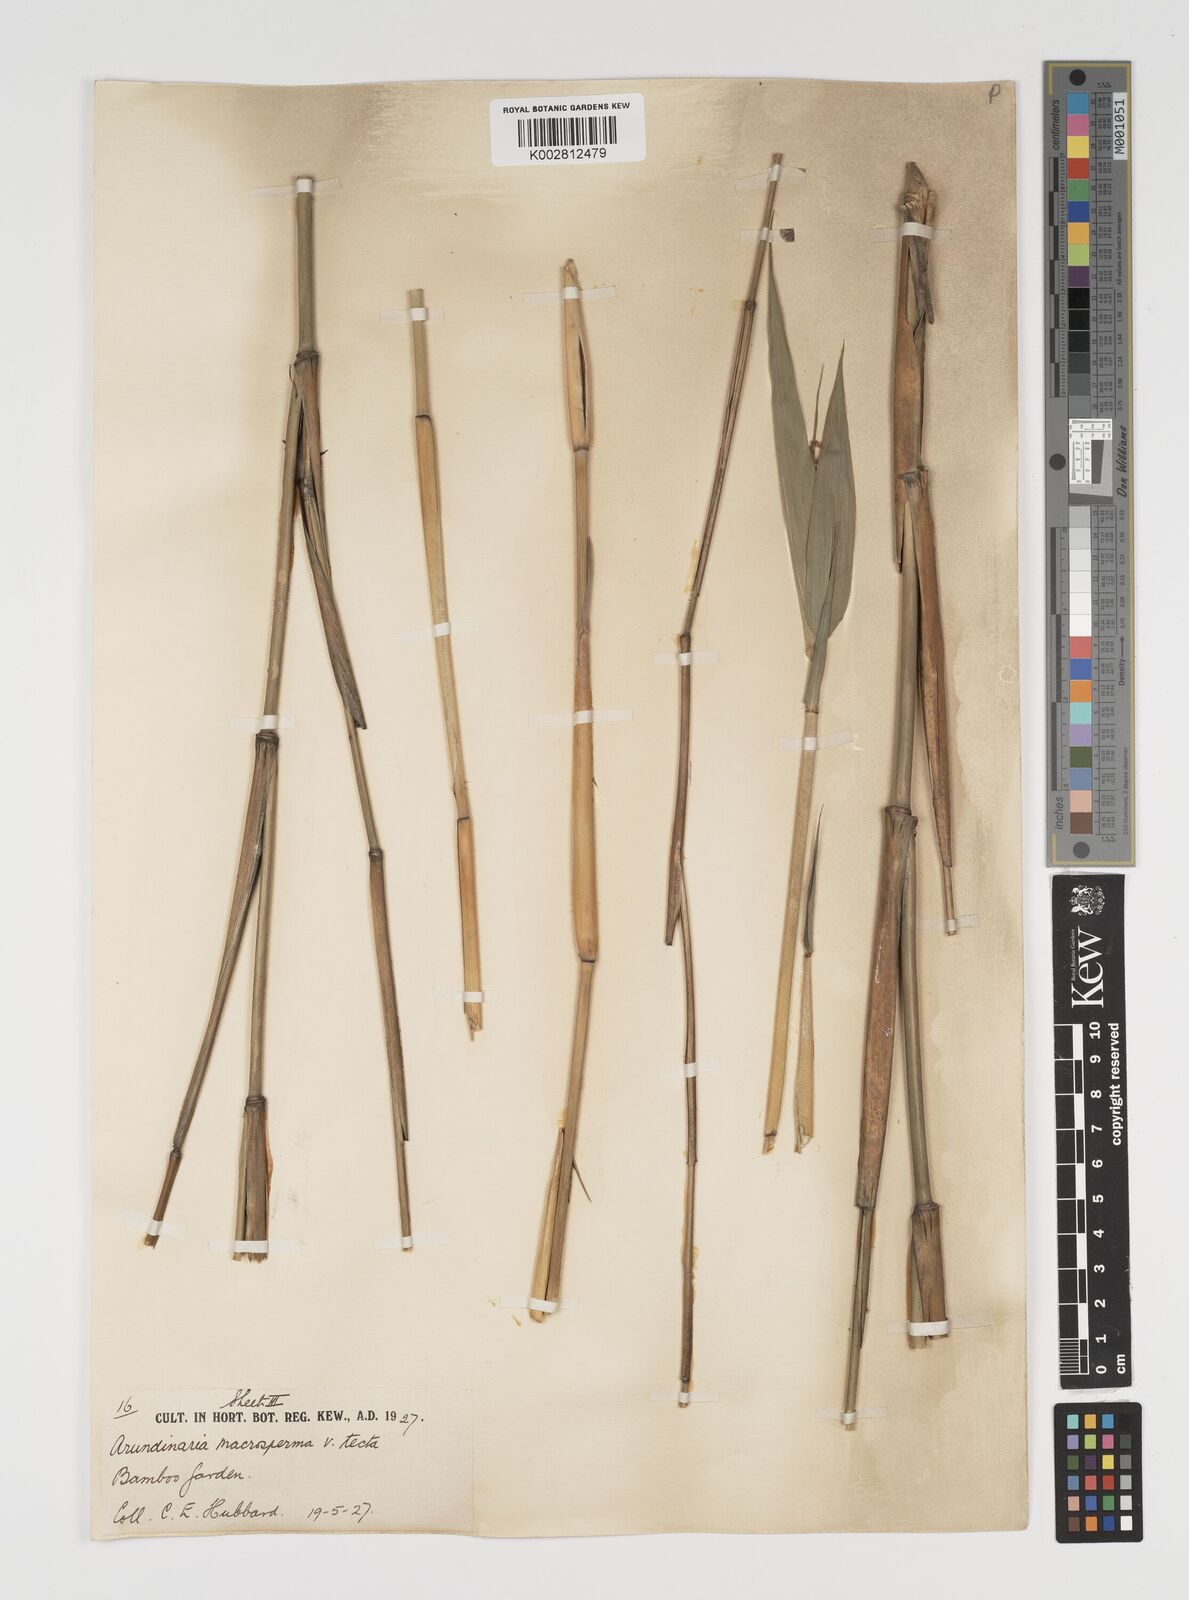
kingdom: Plantae
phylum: Tracheophyta
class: Liliopsida
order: Poales
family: Poaceae
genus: Arundinaria
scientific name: Arundinaria tecta
